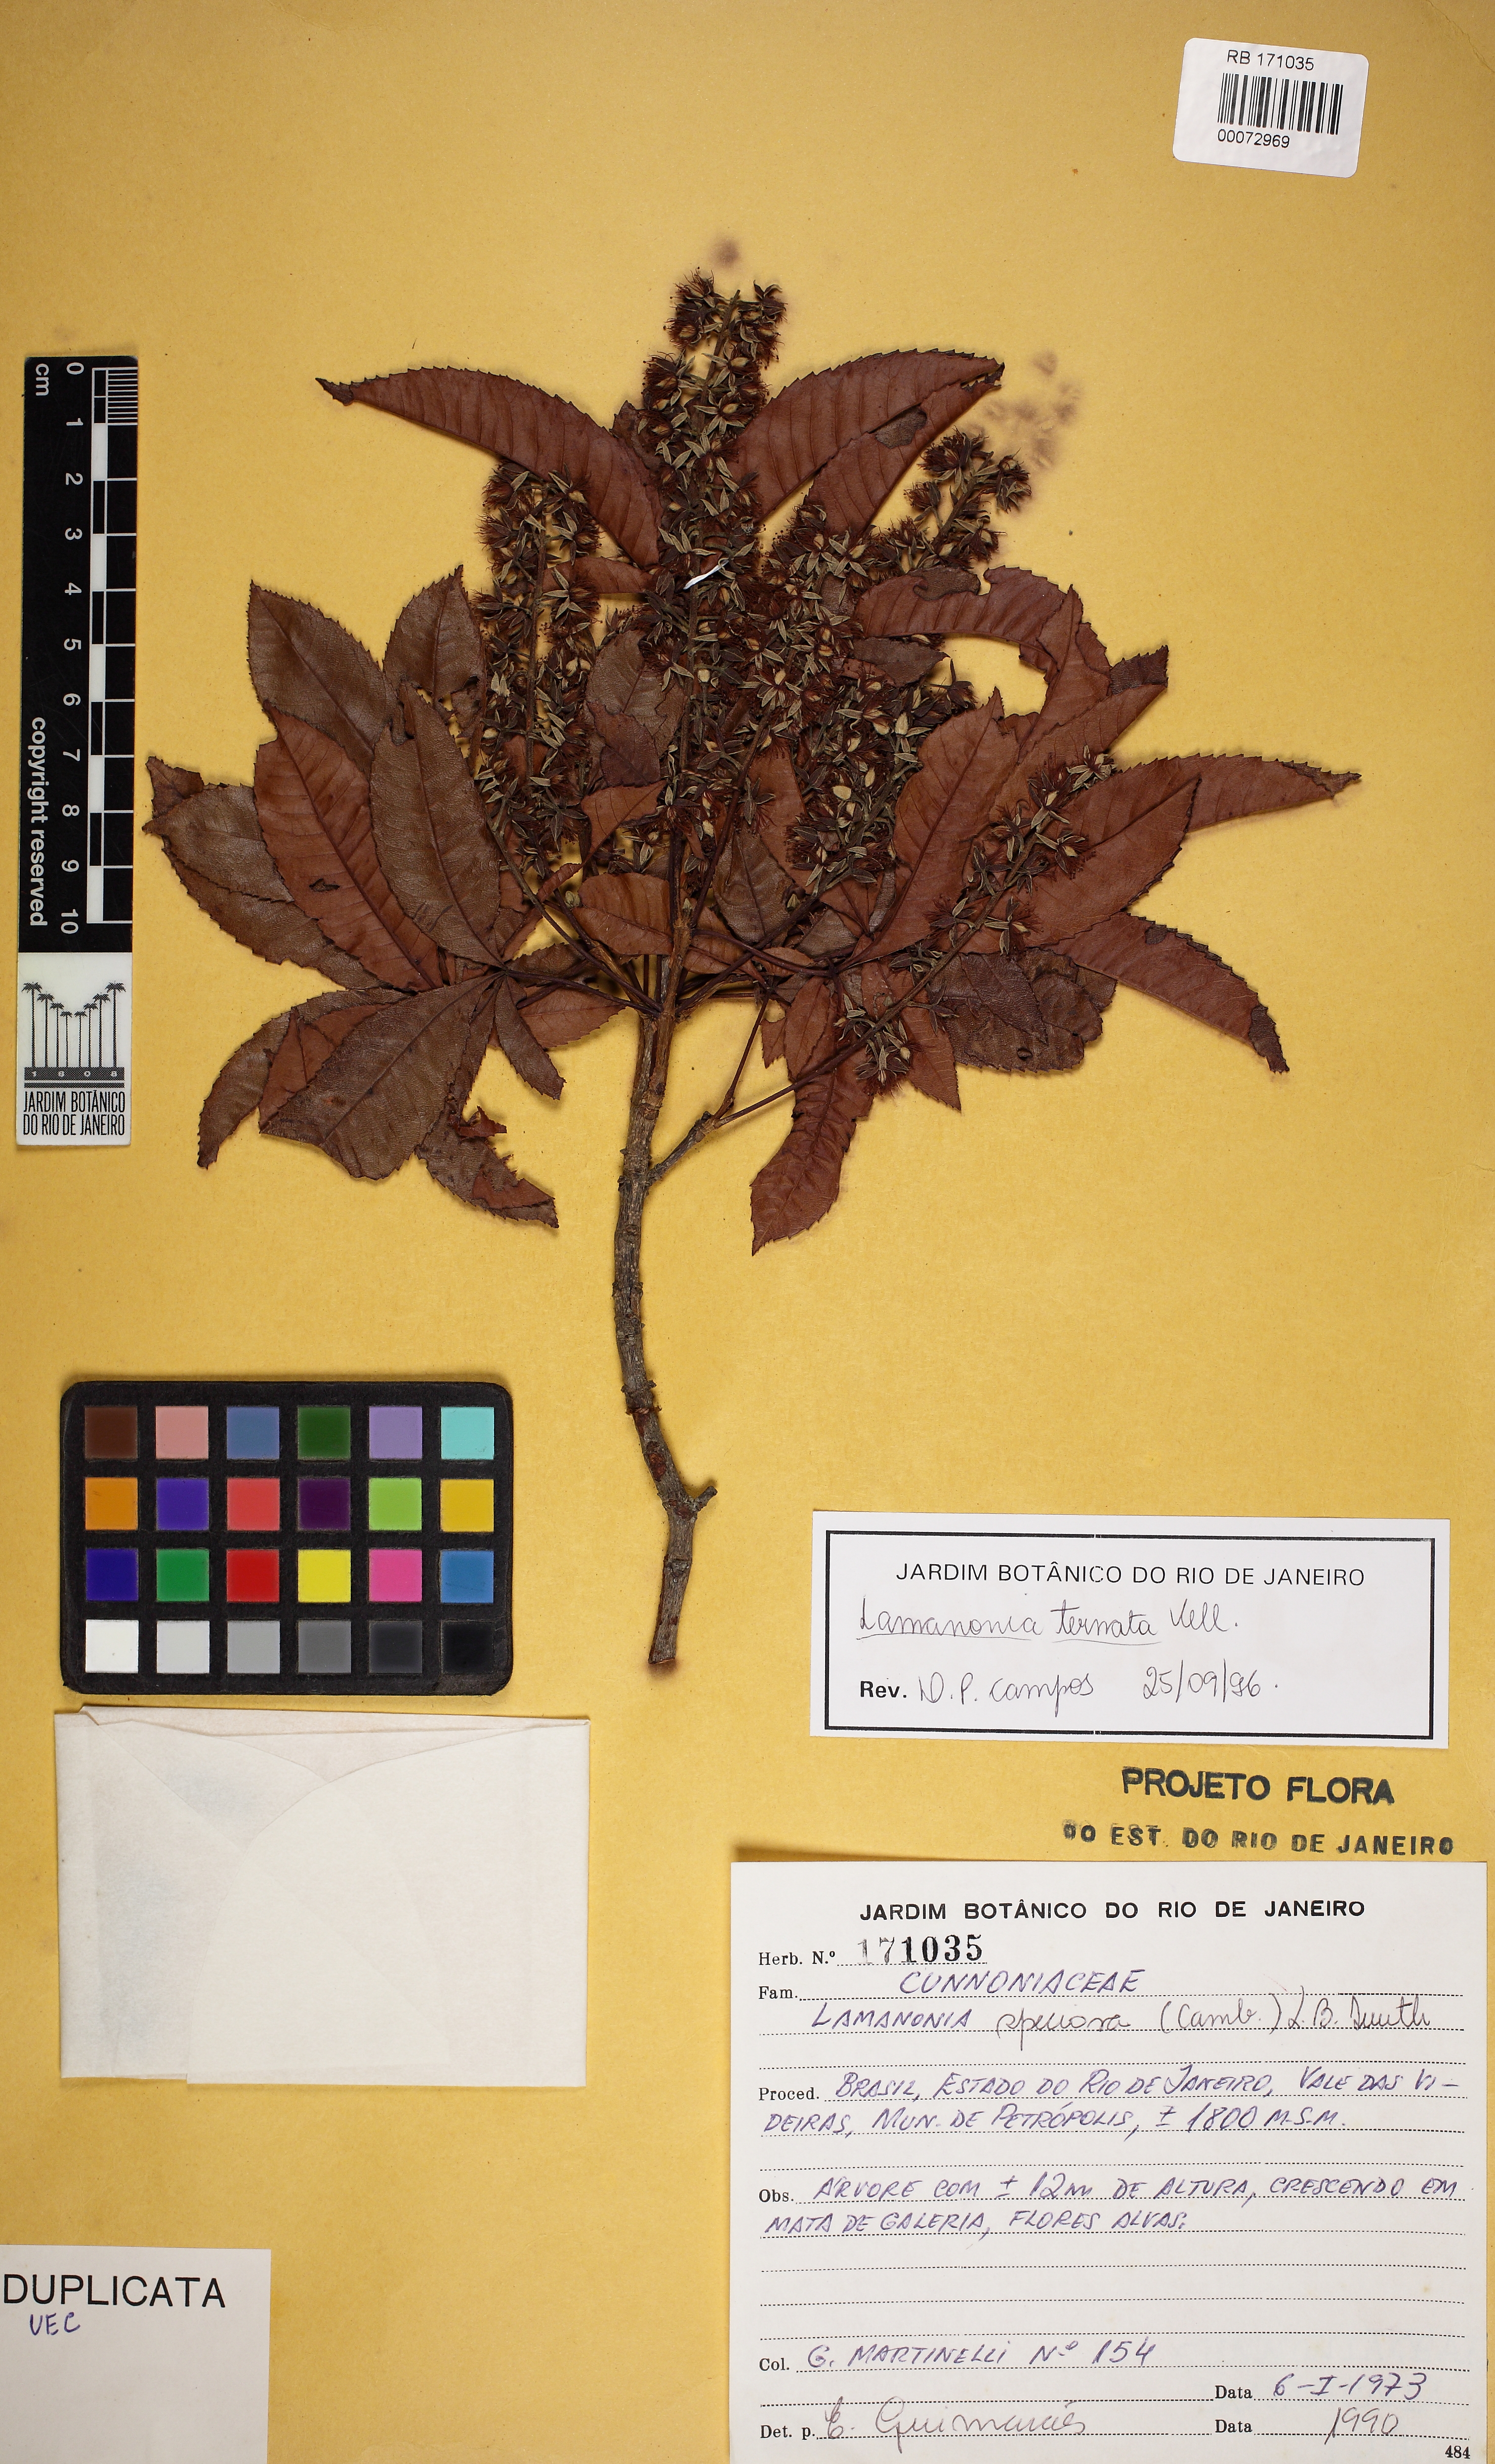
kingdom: Plantae
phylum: Tracheophyta
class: Magnoliopsida
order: Oxalidales
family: Cunoniaceae
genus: Lamanonia
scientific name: Lamanonia ternata
